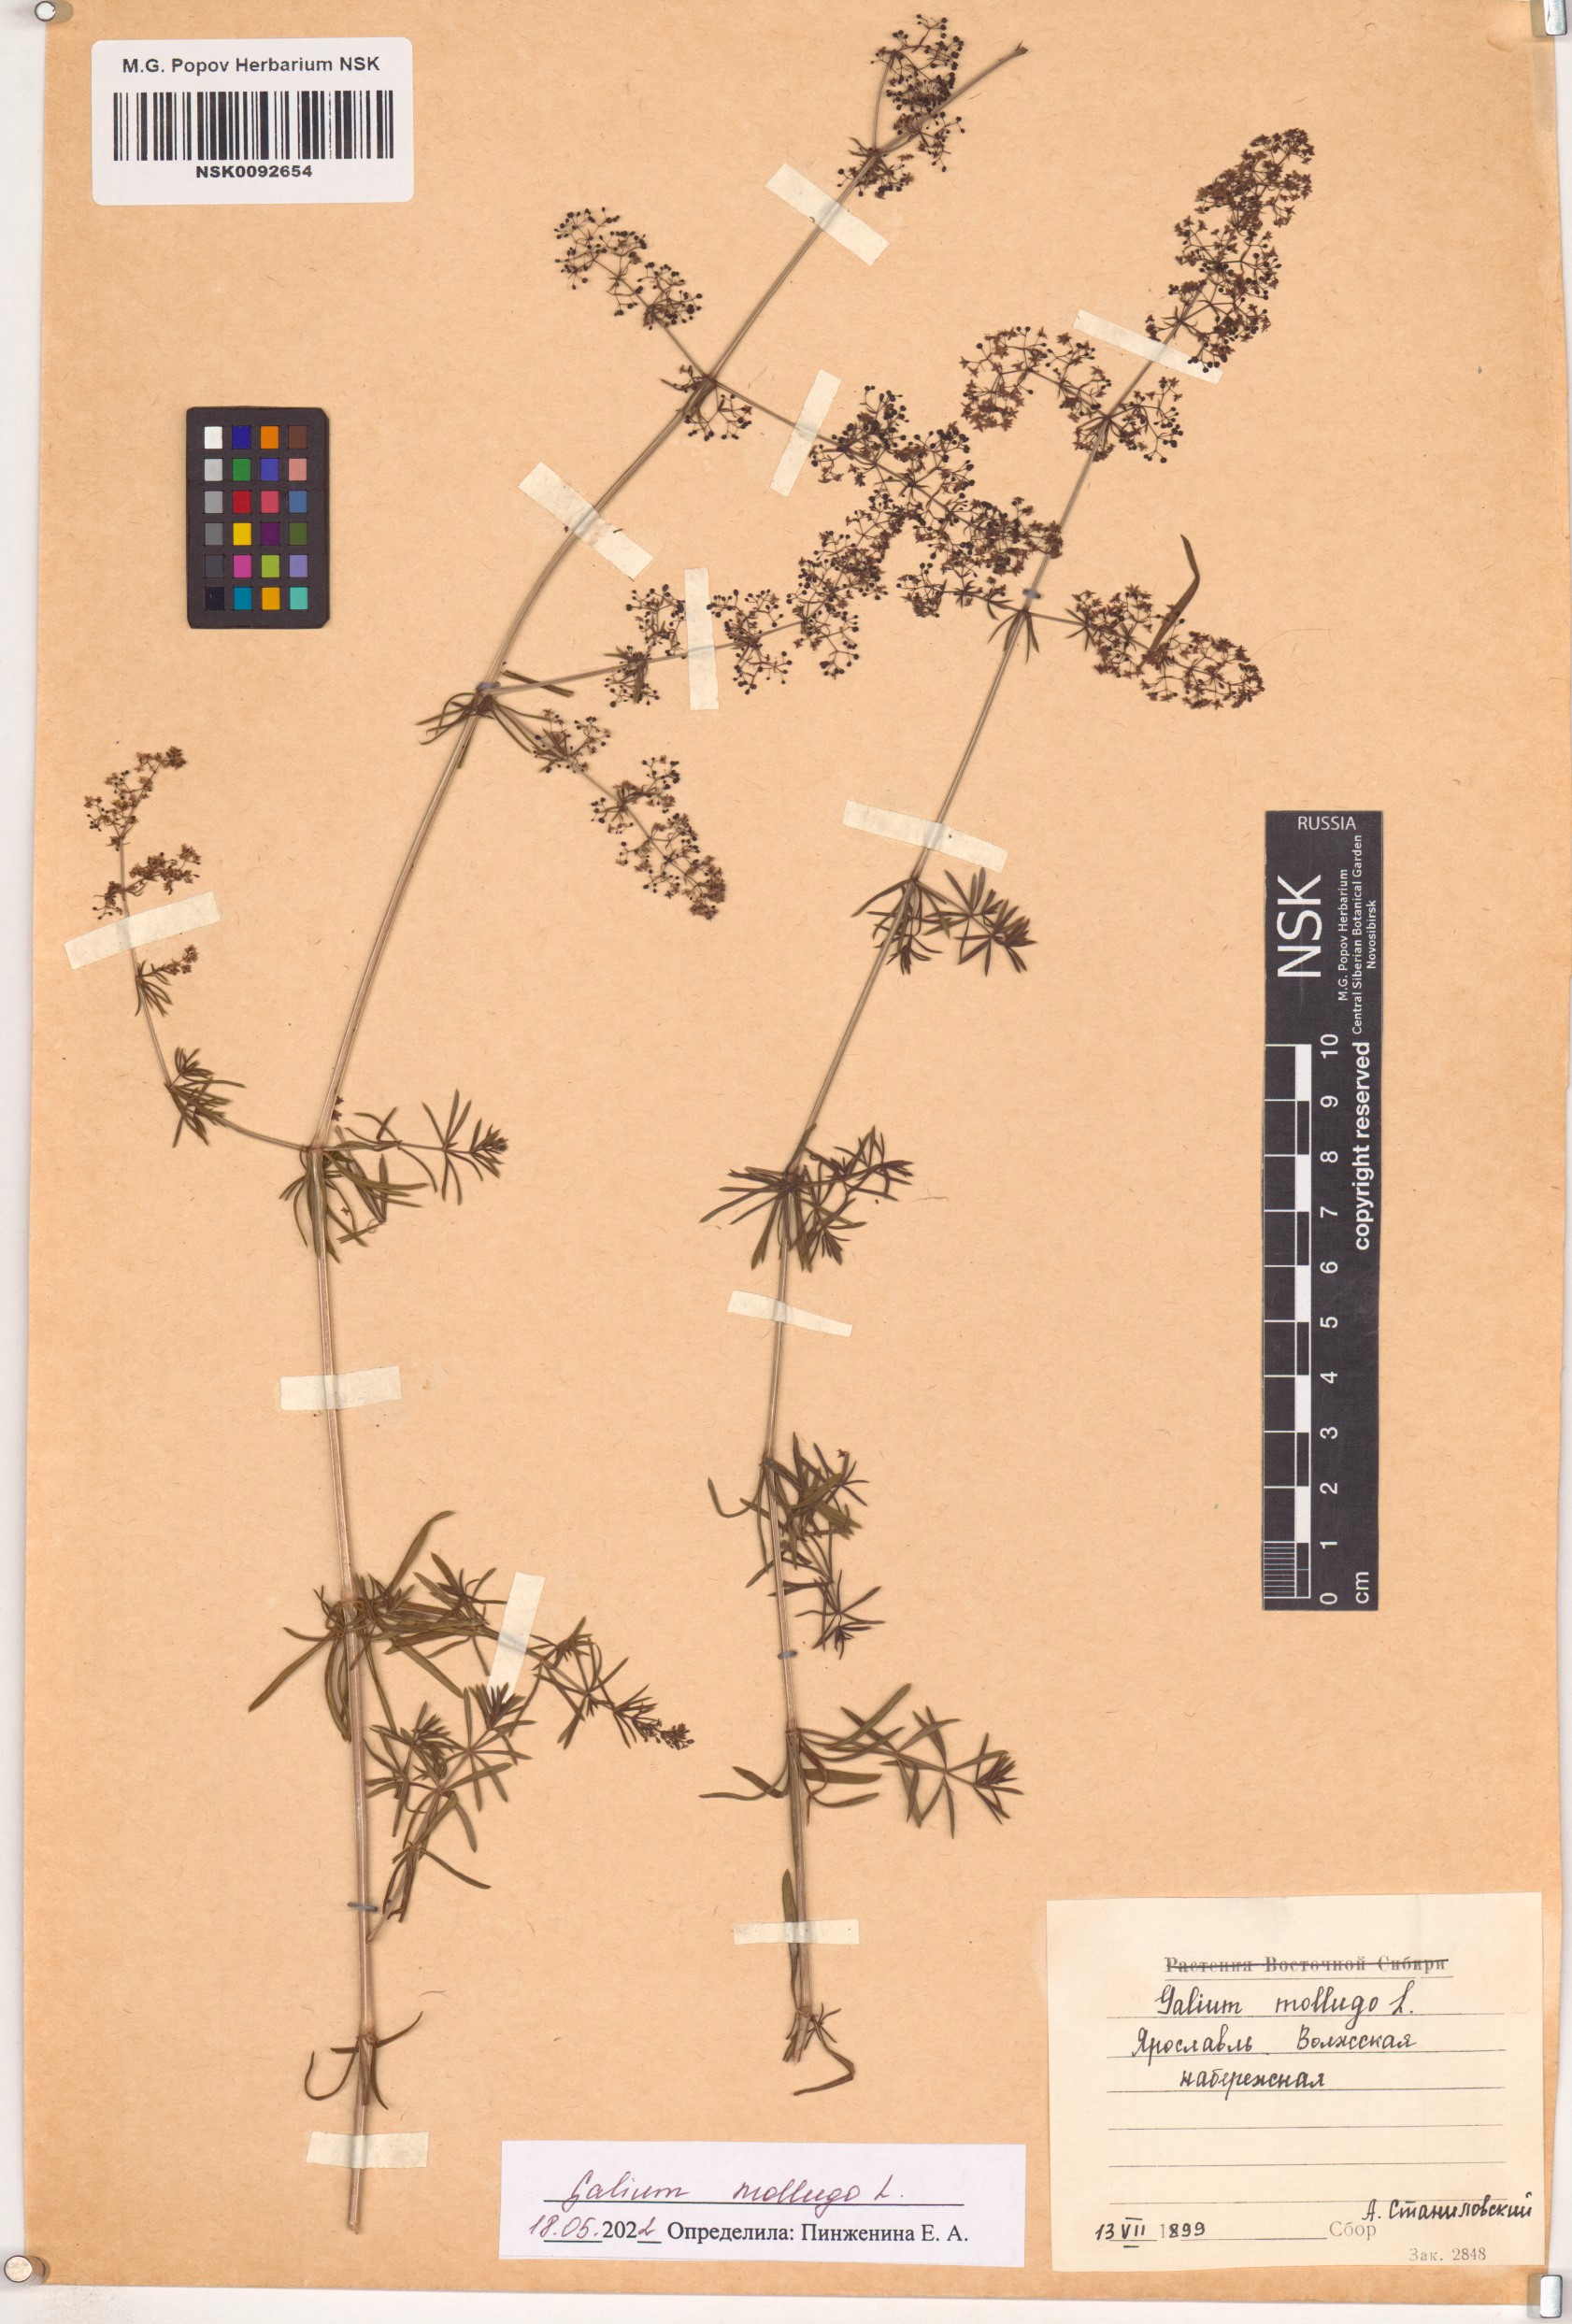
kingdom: Plantae
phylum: Tracheophyta
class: Magnoliopsida
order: Gentianales
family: Rubiaceae
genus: Galium
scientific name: Galium mollugo
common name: Hedge bedstraw
